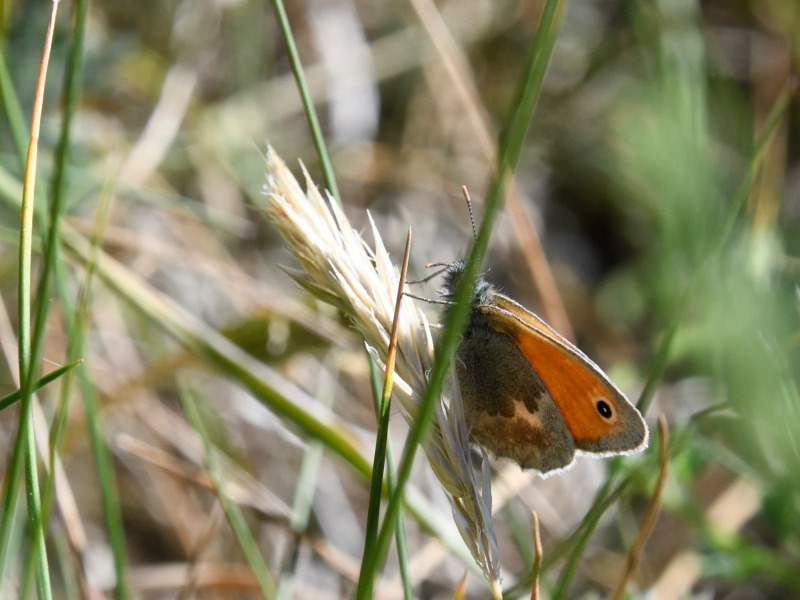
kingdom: Animalia
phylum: Arthropoda
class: Insecta
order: Lepidoptera
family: Nymphalidae
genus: Coenonympha
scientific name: Coenonympha pamphilus
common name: Okkergul randøje
